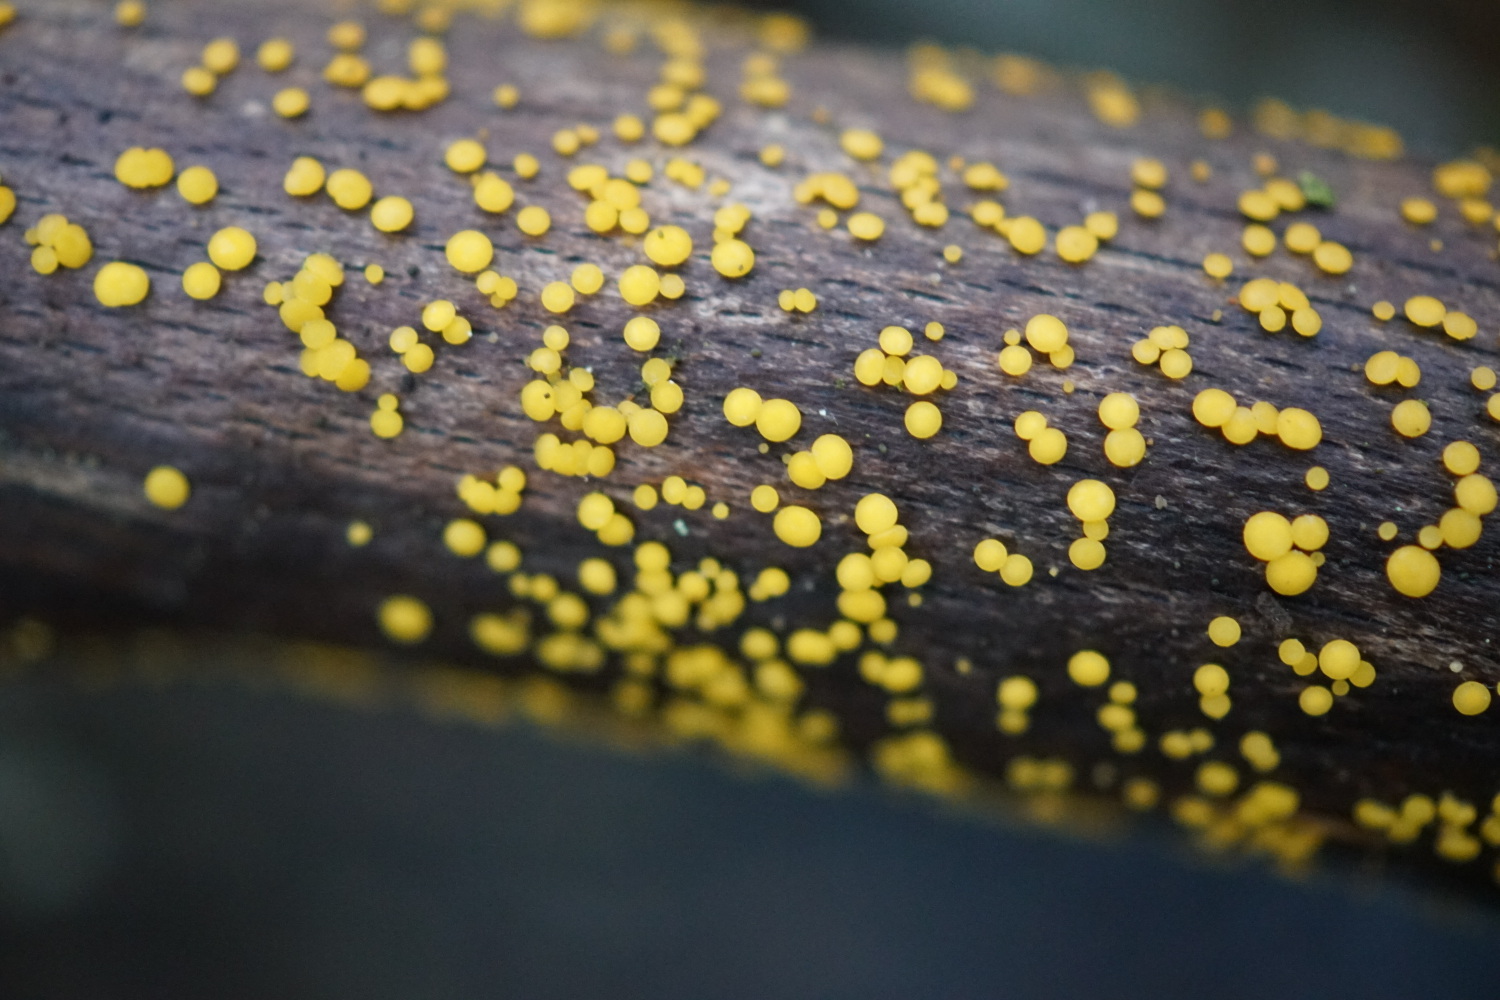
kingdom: Fungi
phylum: Ascomycota
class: Leotiomycetes
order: Helotiales
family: Pezizellaceae
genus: Calycina
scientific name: Calycina citrina
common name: almindelig gulskive
